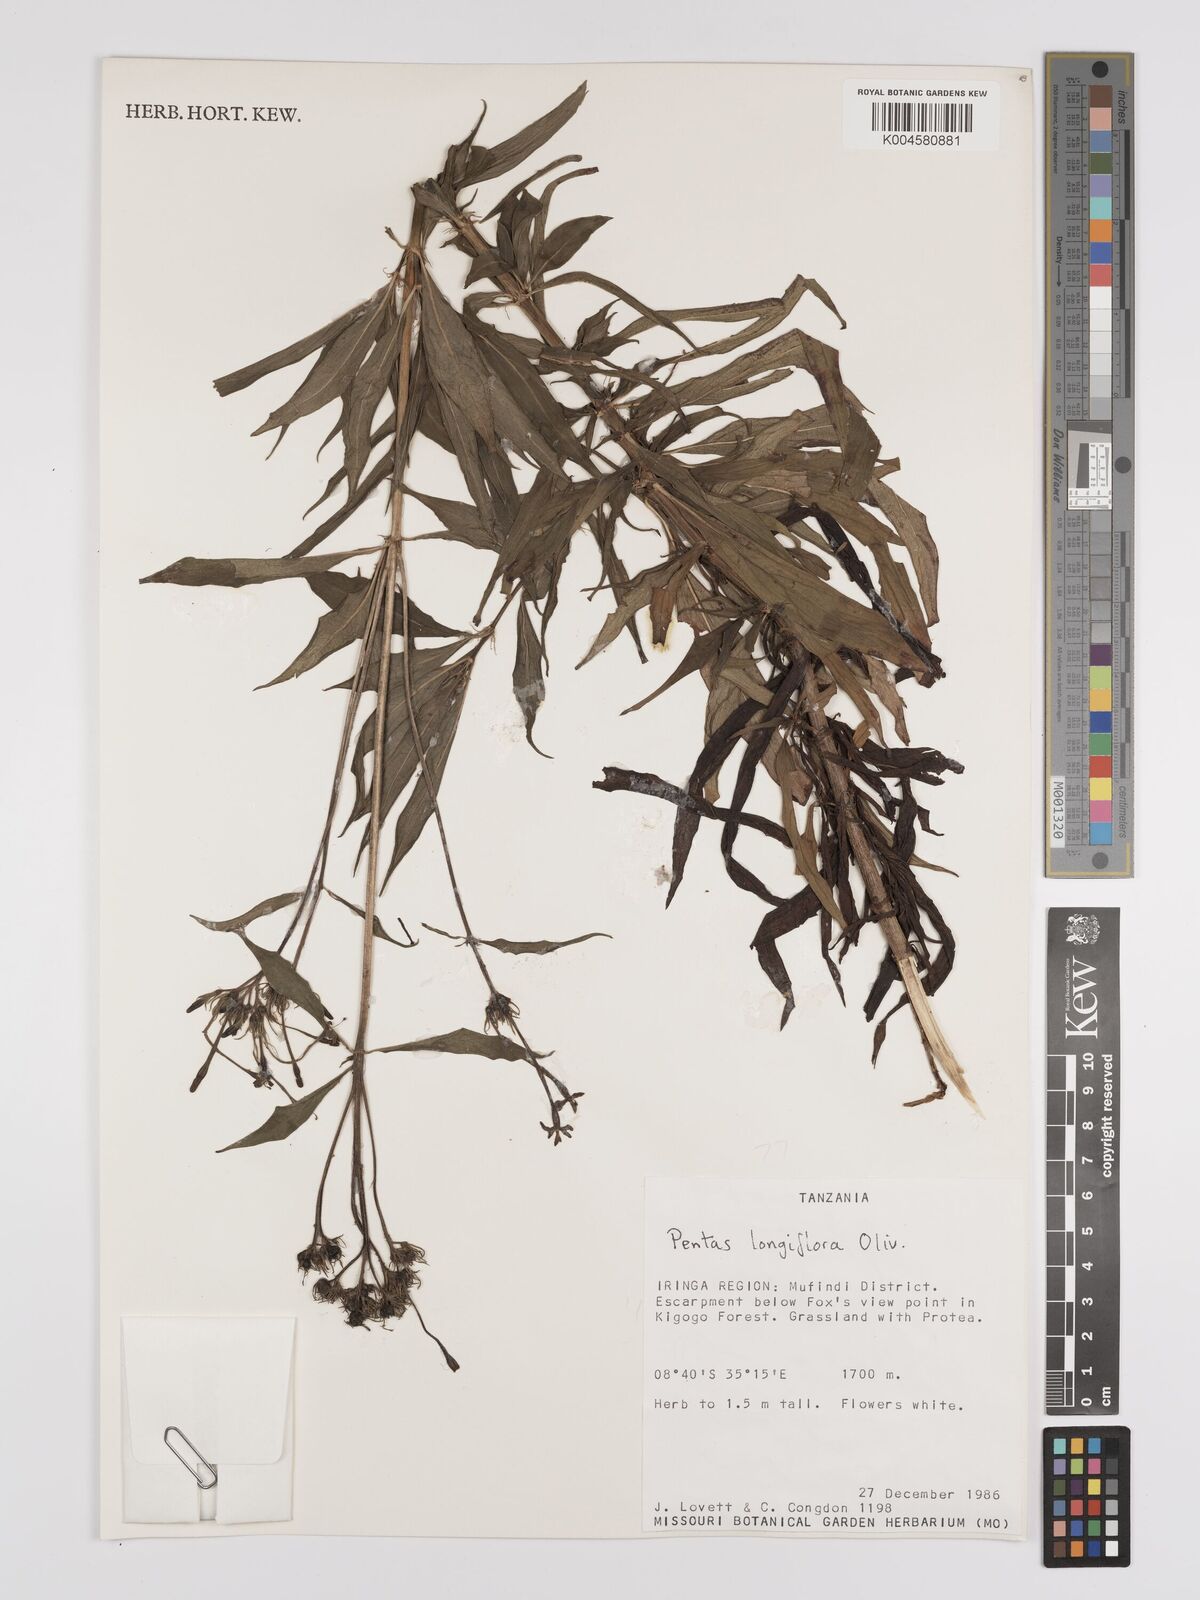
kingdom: Plantae
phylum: Tracheophyta
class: Magnoliopsida
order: Gentianales
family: Rubiaceae
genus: Dolichopentas
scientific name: Dolichopentas longiflora
